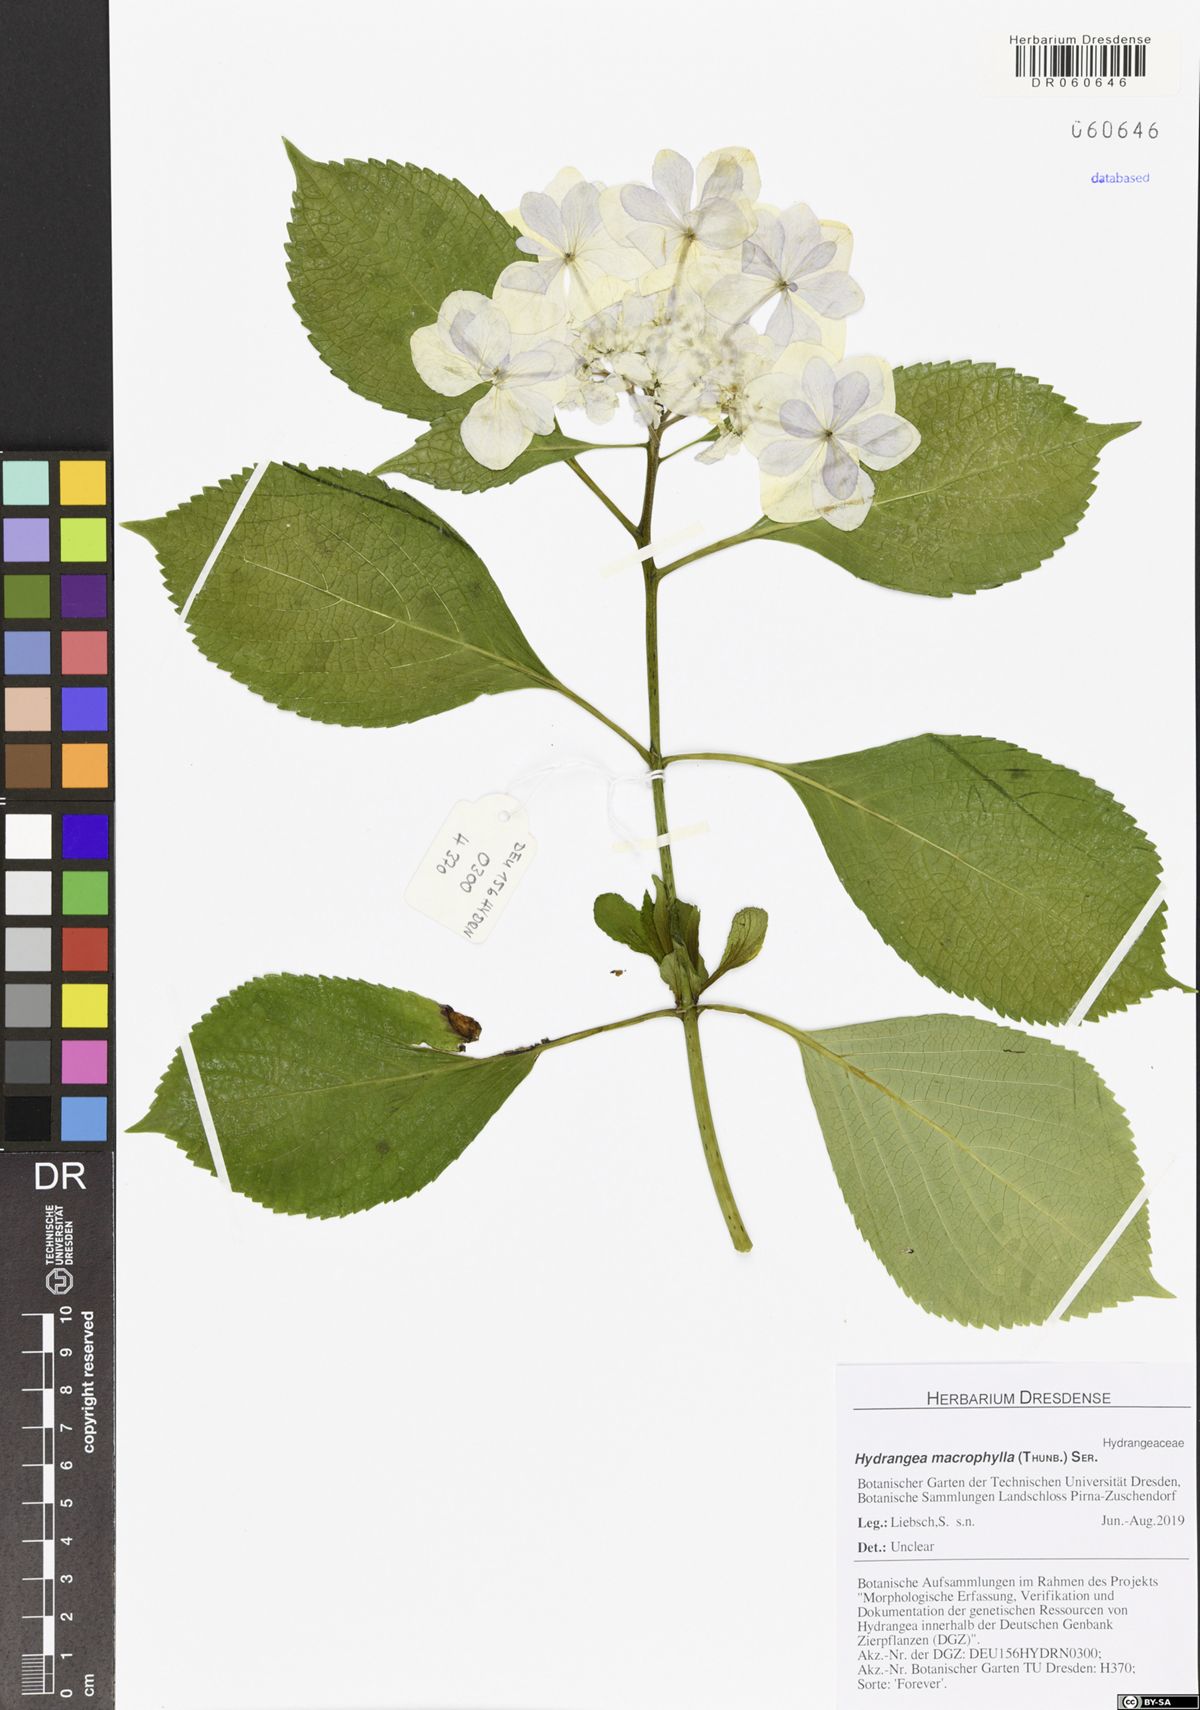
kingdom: Plantae
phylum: Tracheophyta
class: Magnoliopsida
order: Cornales
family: Hydrangeaceae
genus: Hydrangea
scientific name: Hydrangea macrophylla
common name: Hydrangea
